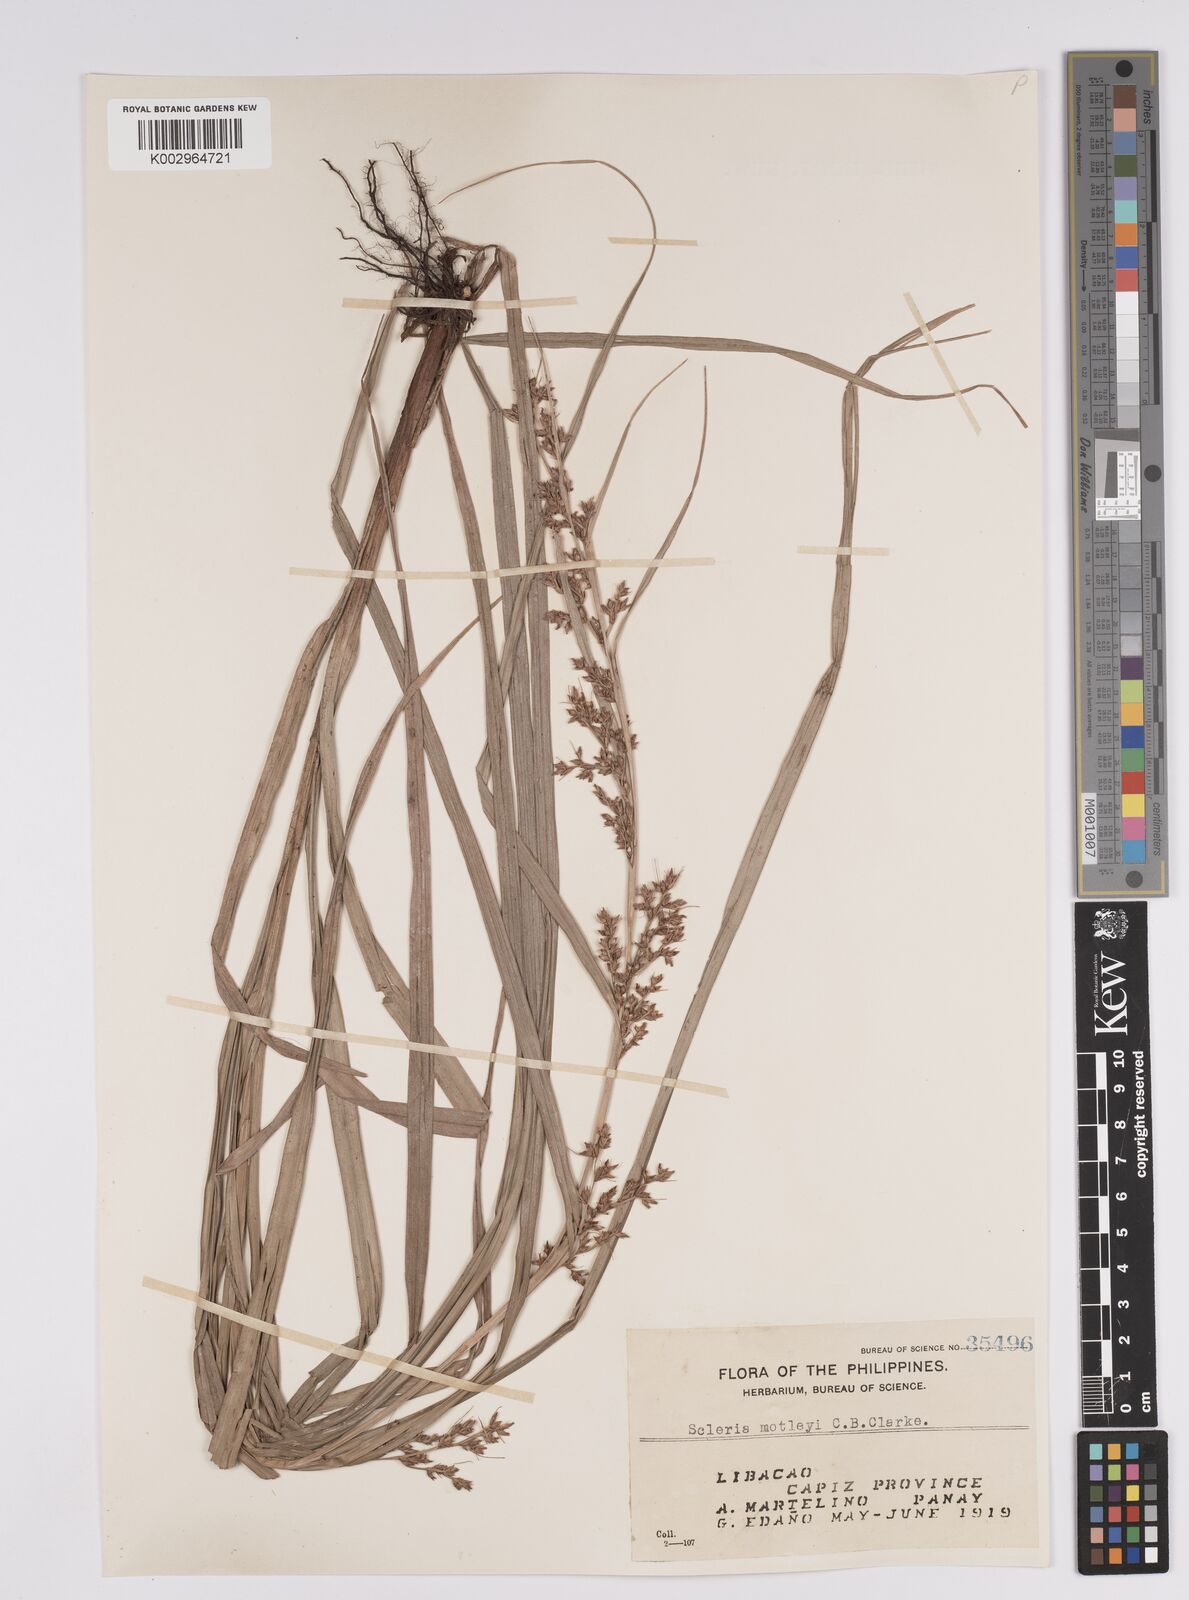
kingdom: Plantae
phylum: Tracheophyta
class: Liliopsida
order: Poales
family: Cyperaceae
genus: Scleria
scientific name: Scleria motleyi
